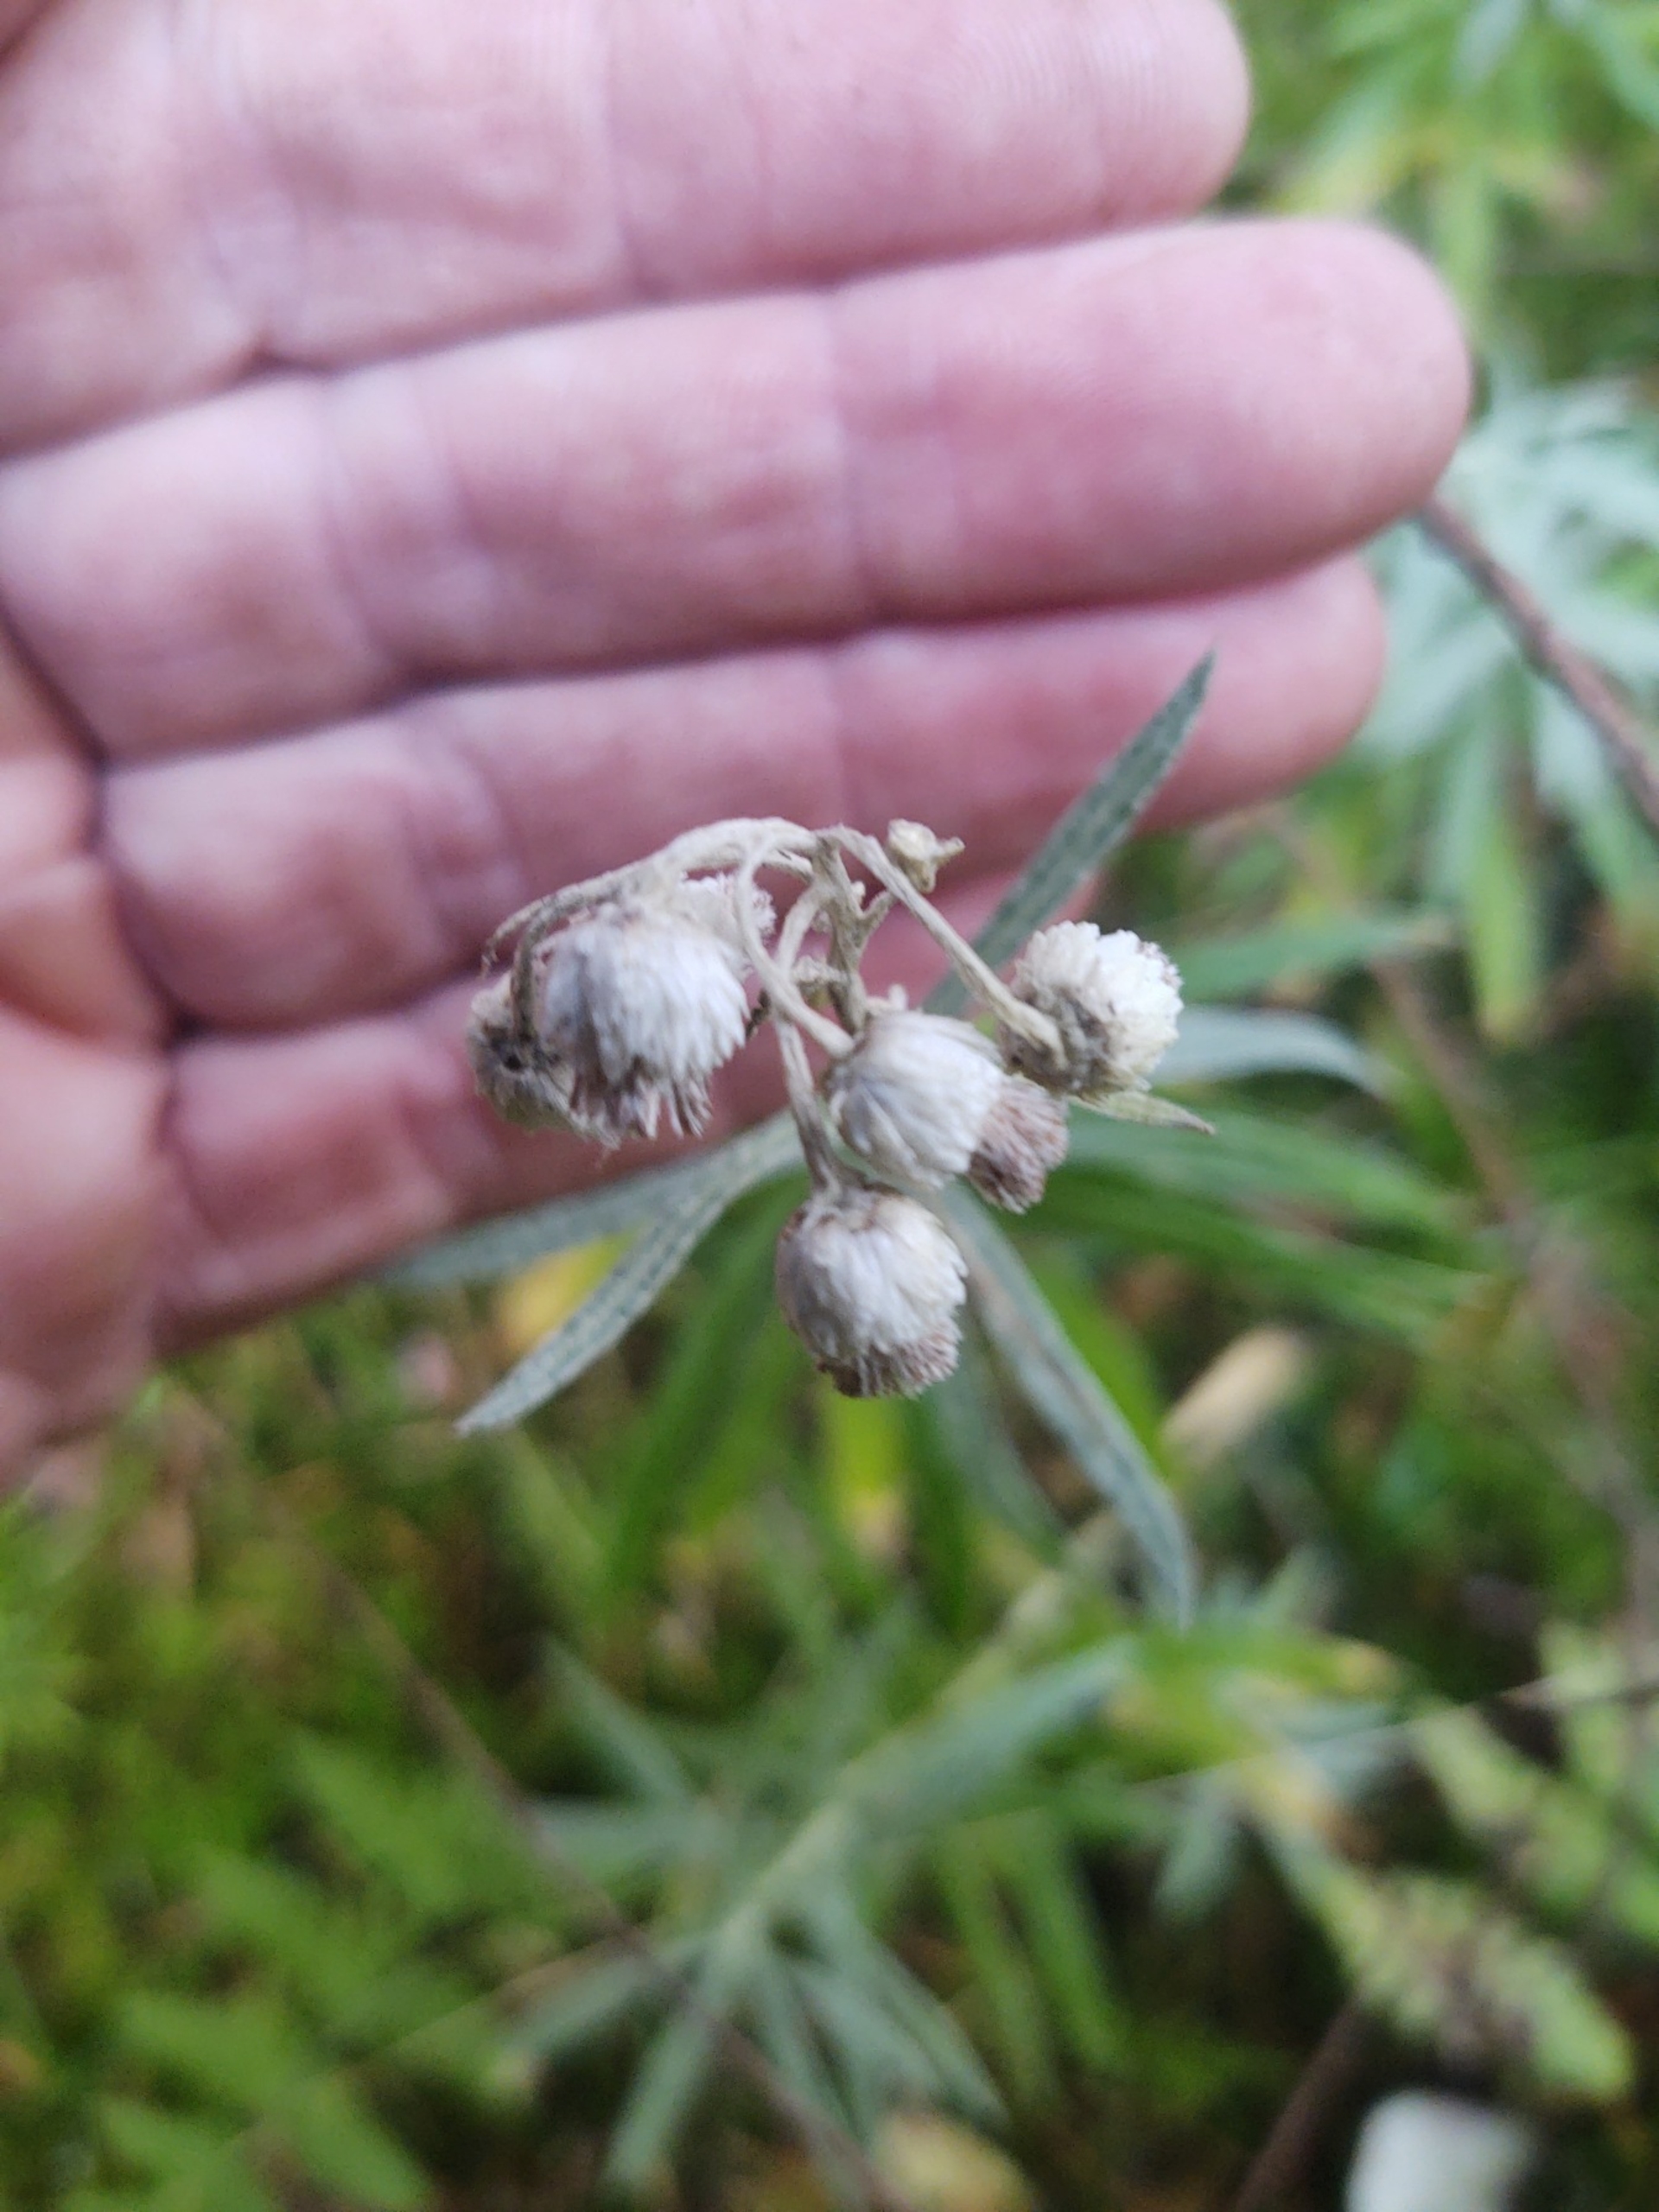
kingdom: Plantae
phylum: Tracheophyta
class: Magnoliopsida
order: Asterales
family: Asteraceae
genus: Anaphalis
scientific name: Anaphalis margaritacea
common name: Perlekurv
